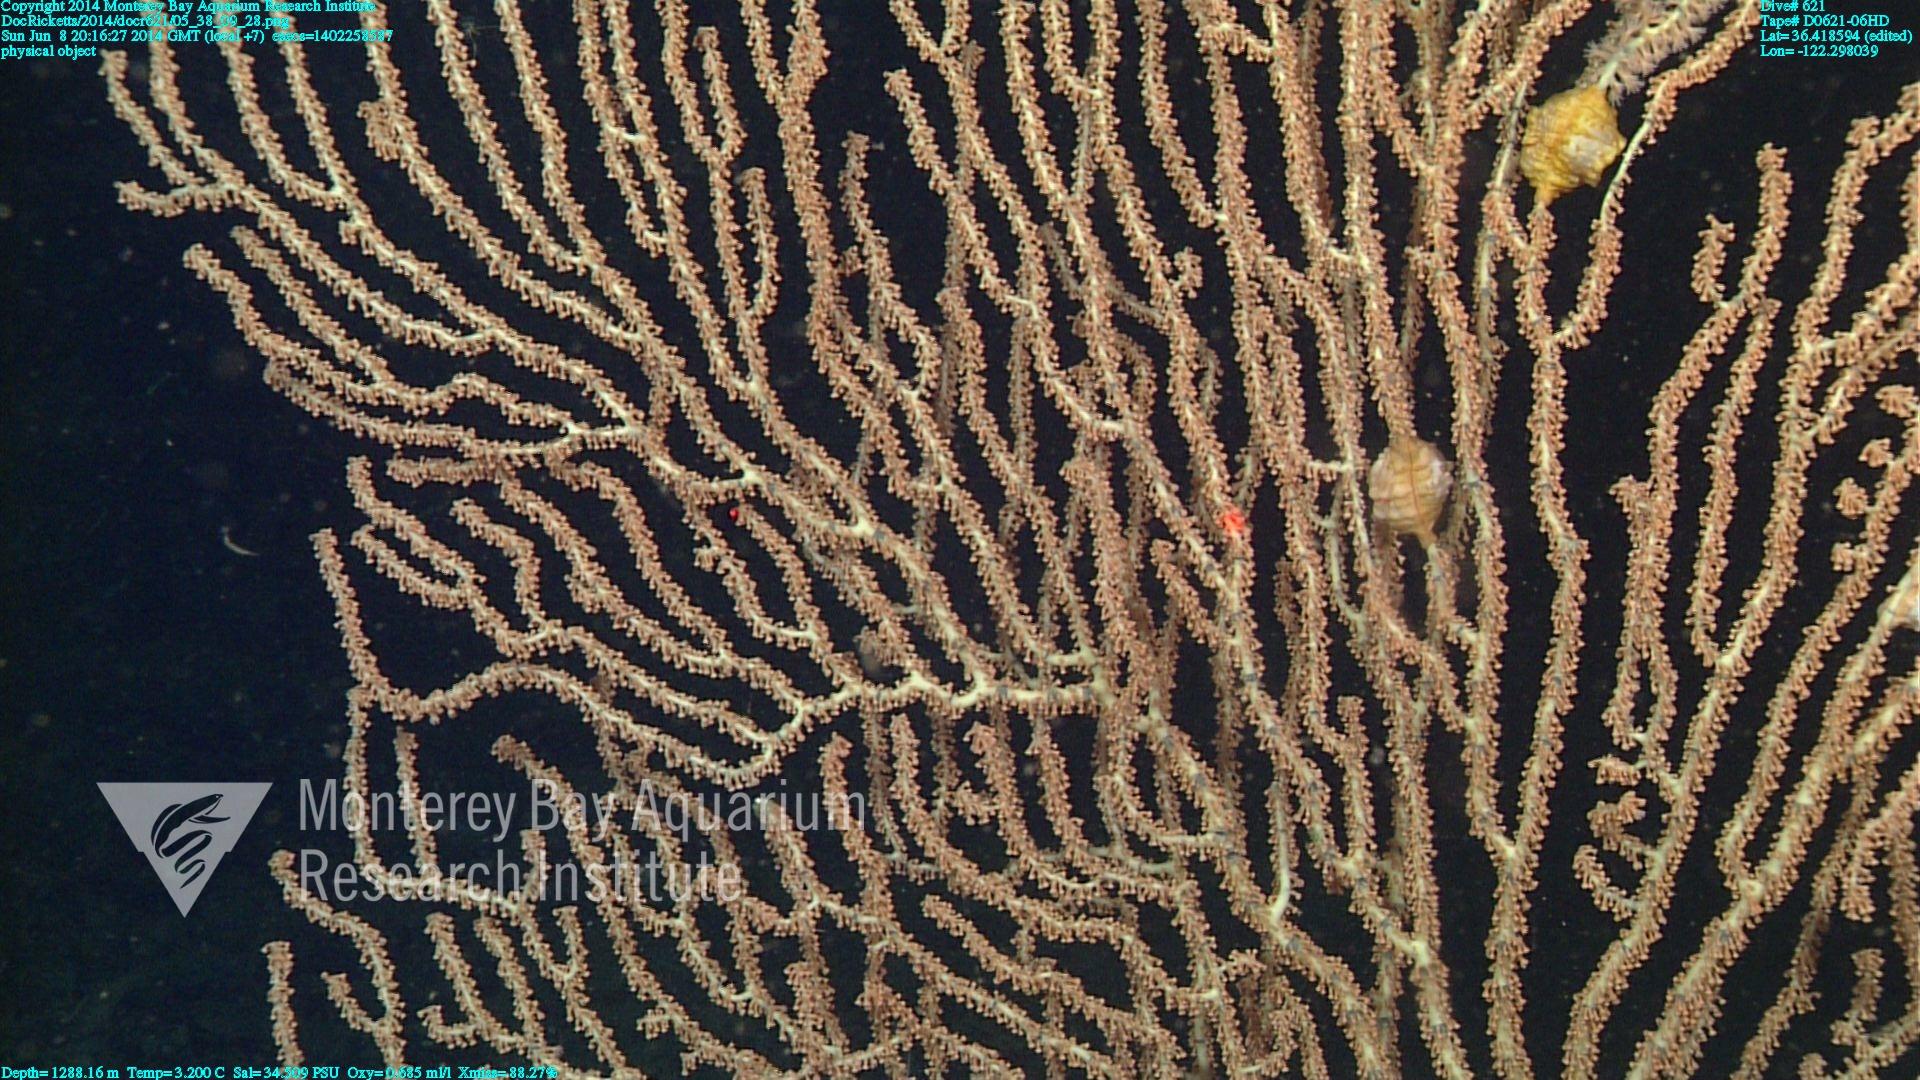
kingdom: Animalia
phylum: Cnidaria
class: Anthozoa
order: Scleralcyonacea
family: Keratoisididae
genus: Keratoisis
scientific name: Keratoisis
